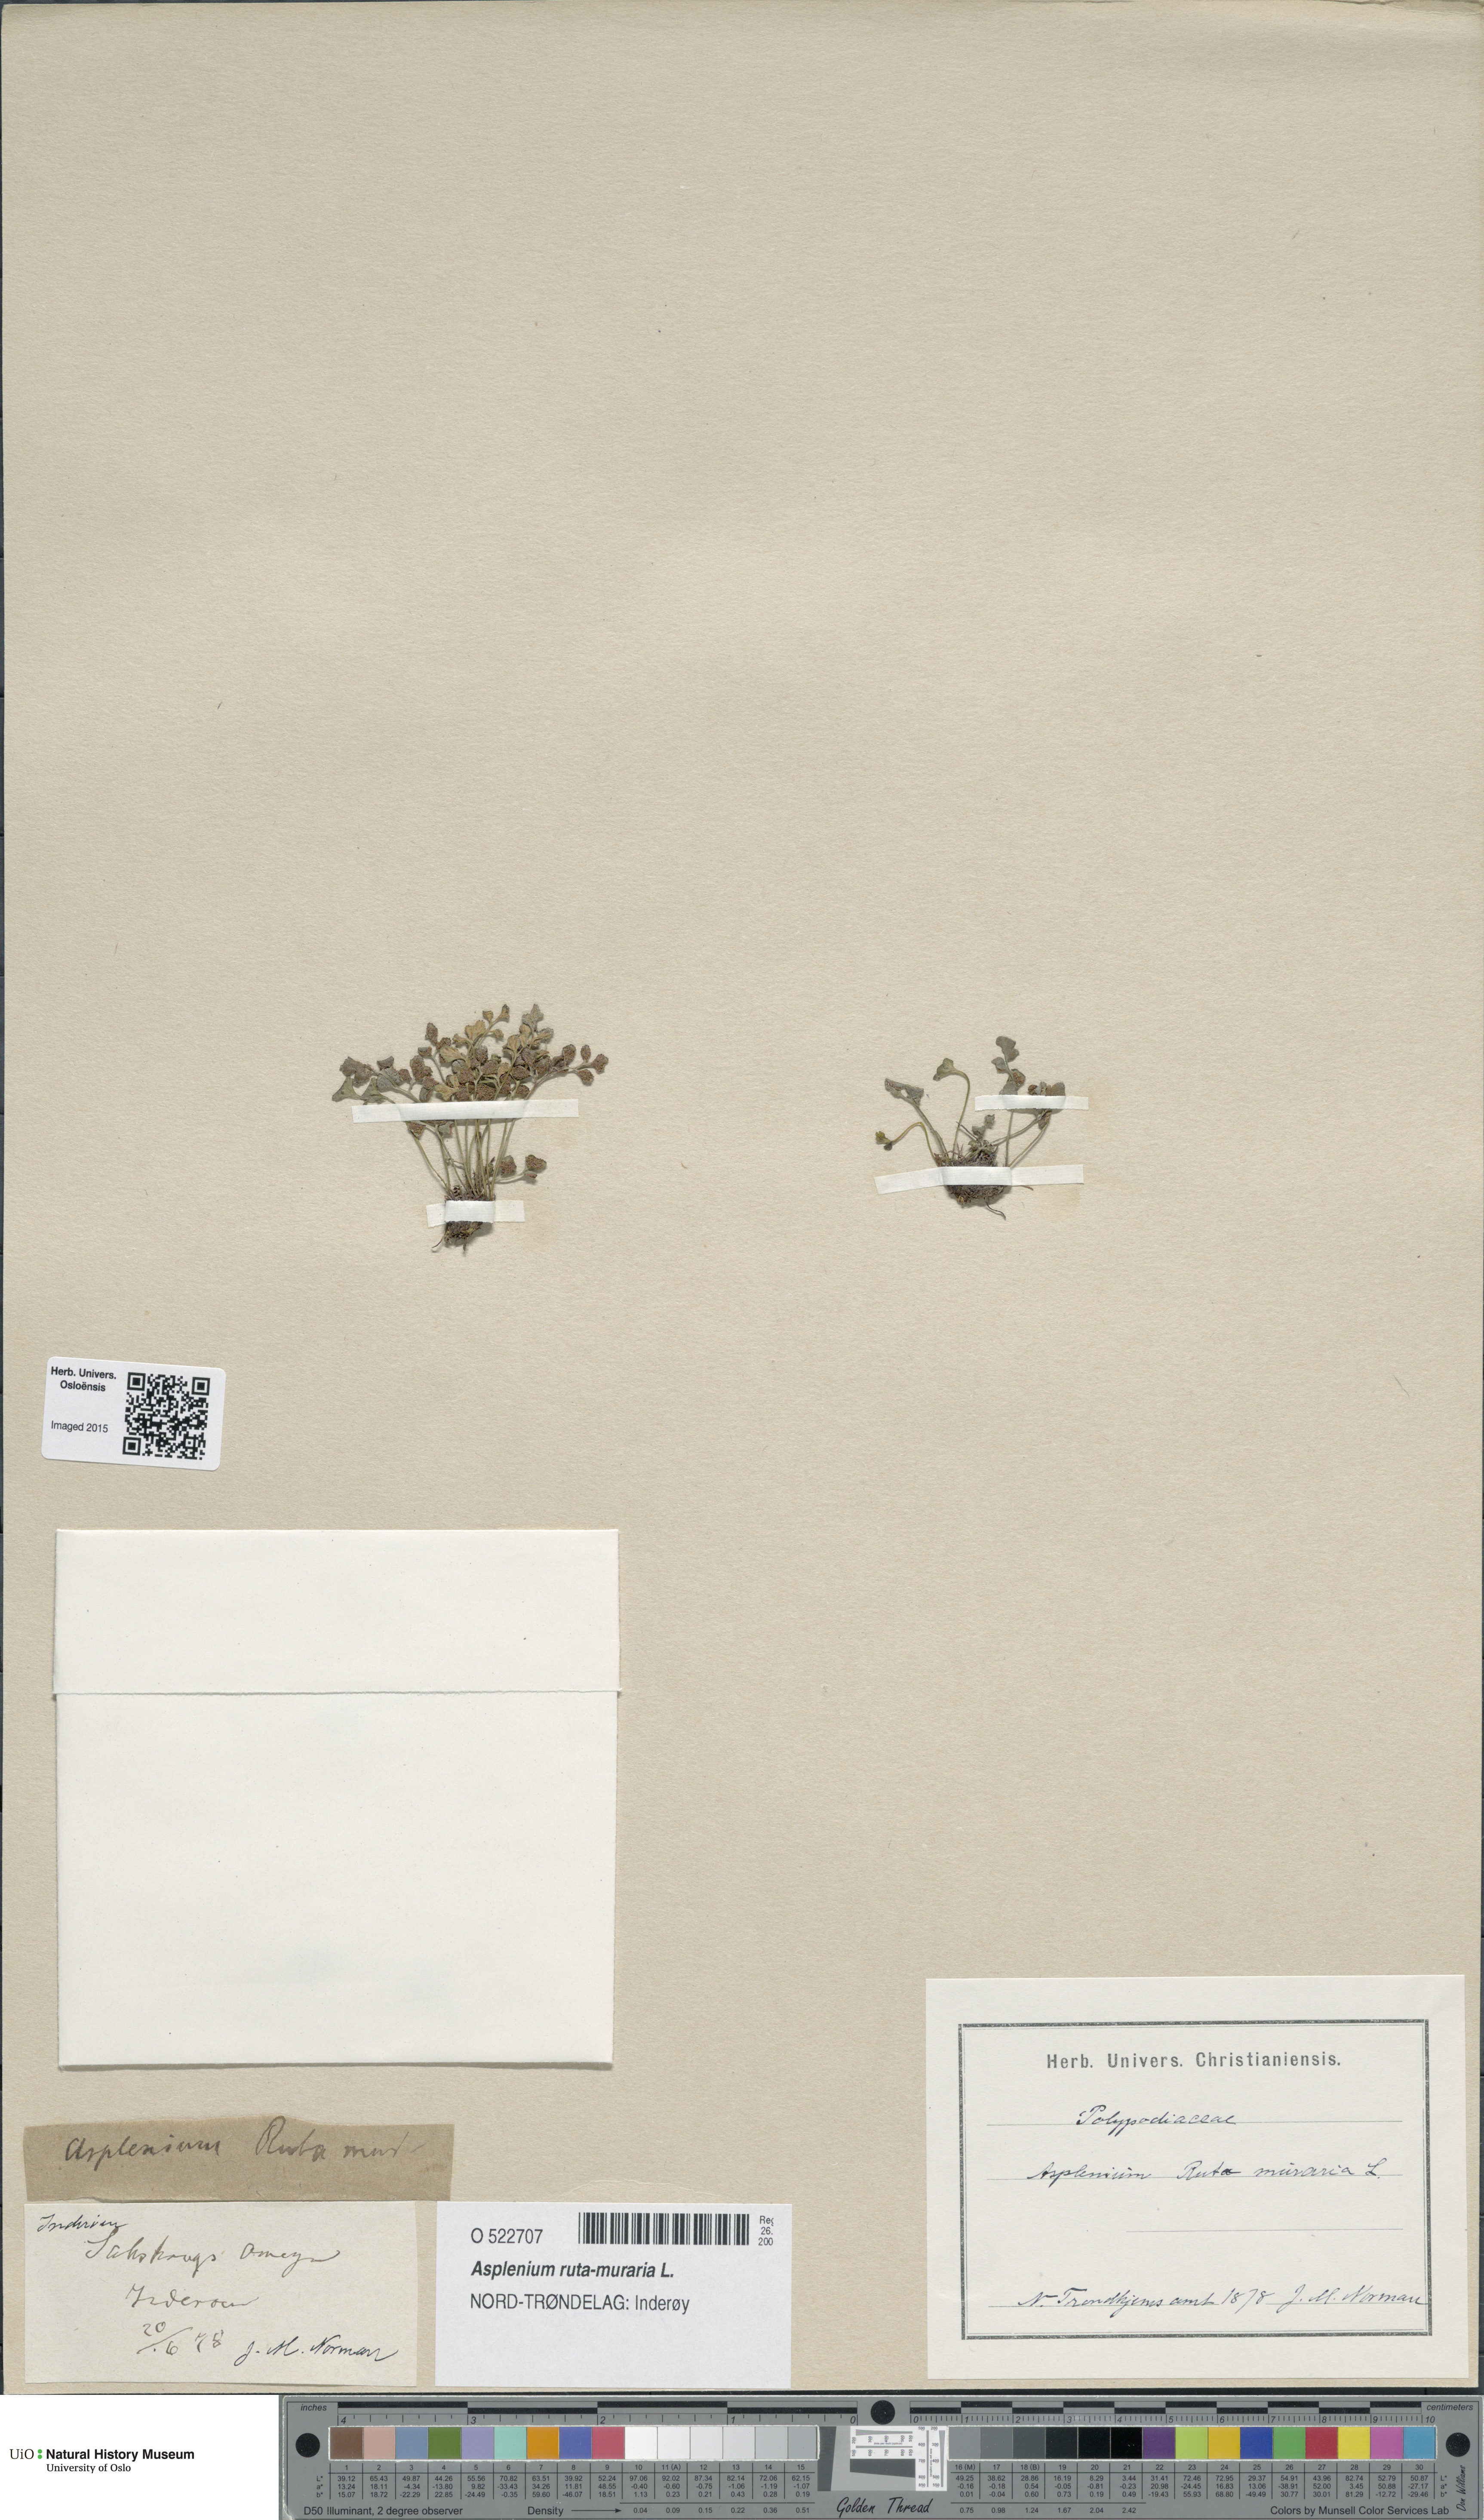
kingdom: Plantae
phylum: Tracheophyta
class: Polypodiopsida
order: Polypodiales
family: Aspleniaceae
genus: Asplenium
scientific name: Asplenium ruta-muraria
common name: Wall-rue
